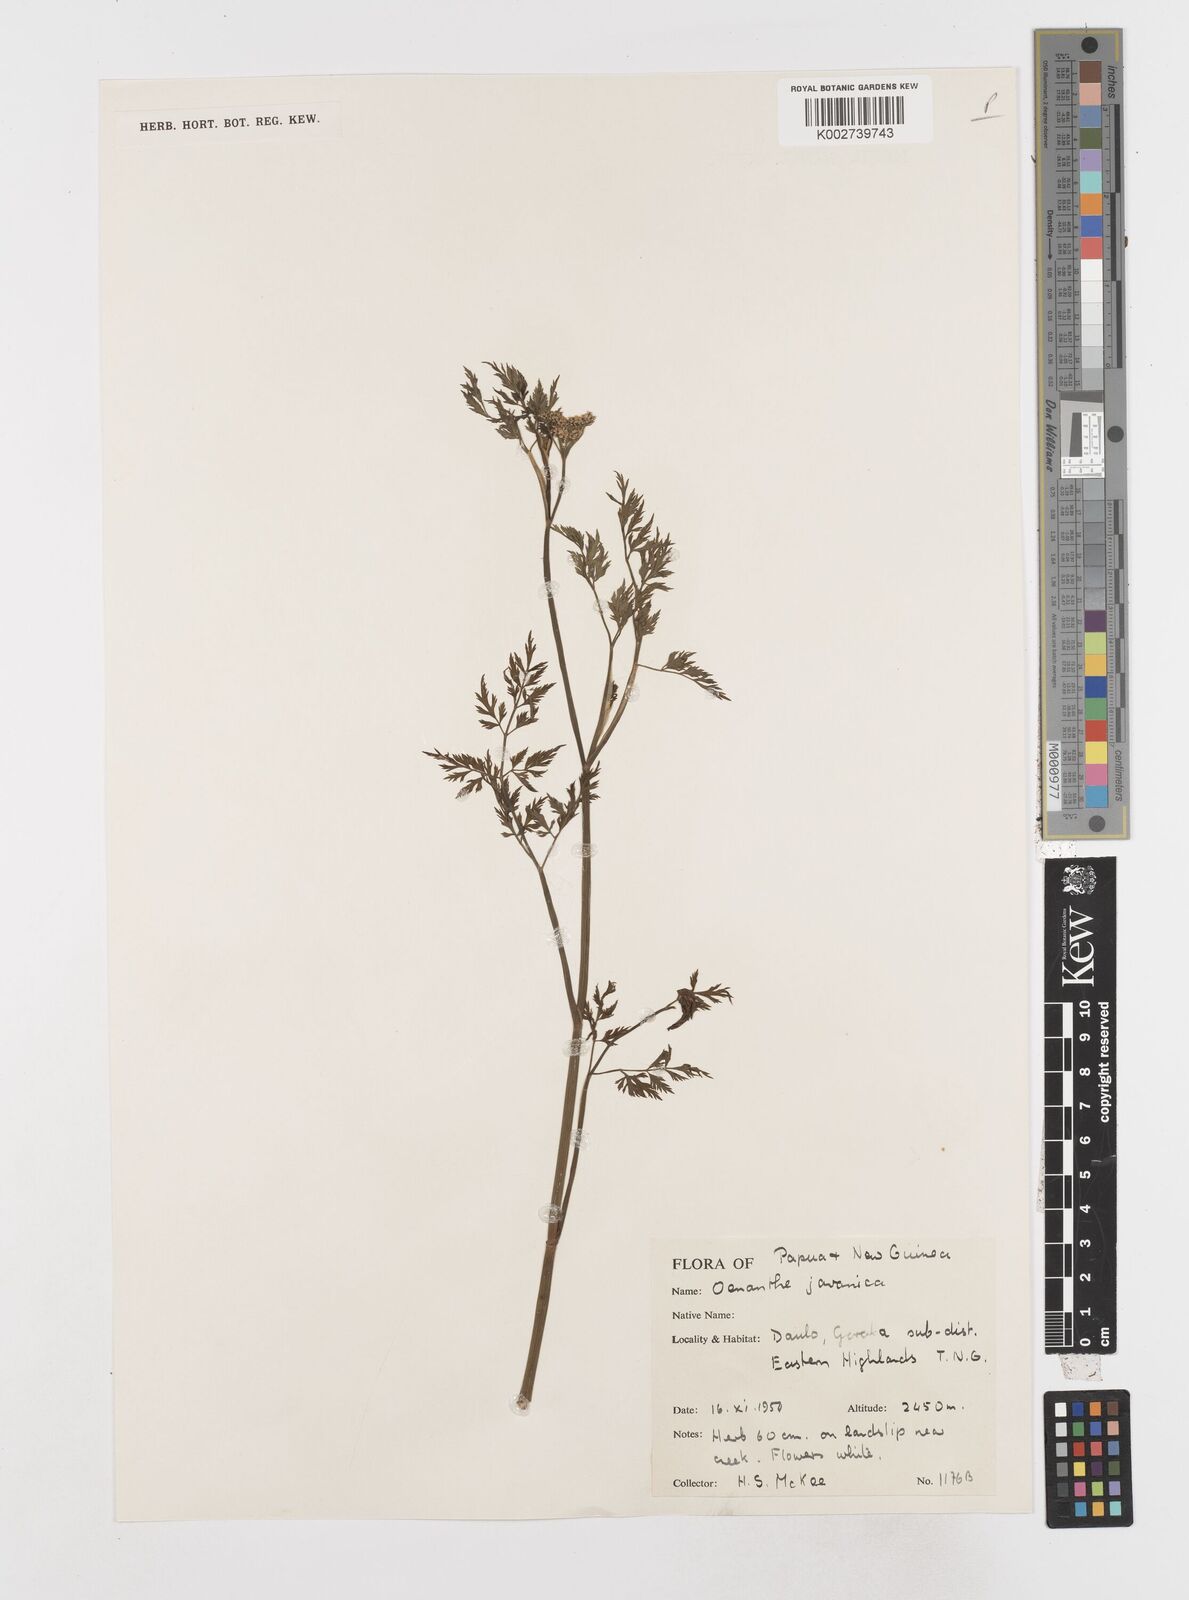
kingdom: Plantae
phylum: Tracheophyta
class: Magnoliopsida
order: Apiales
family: Apiaceae
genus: Oenanthe
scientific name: Oenanthe javanica
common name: Java water-dropwort
